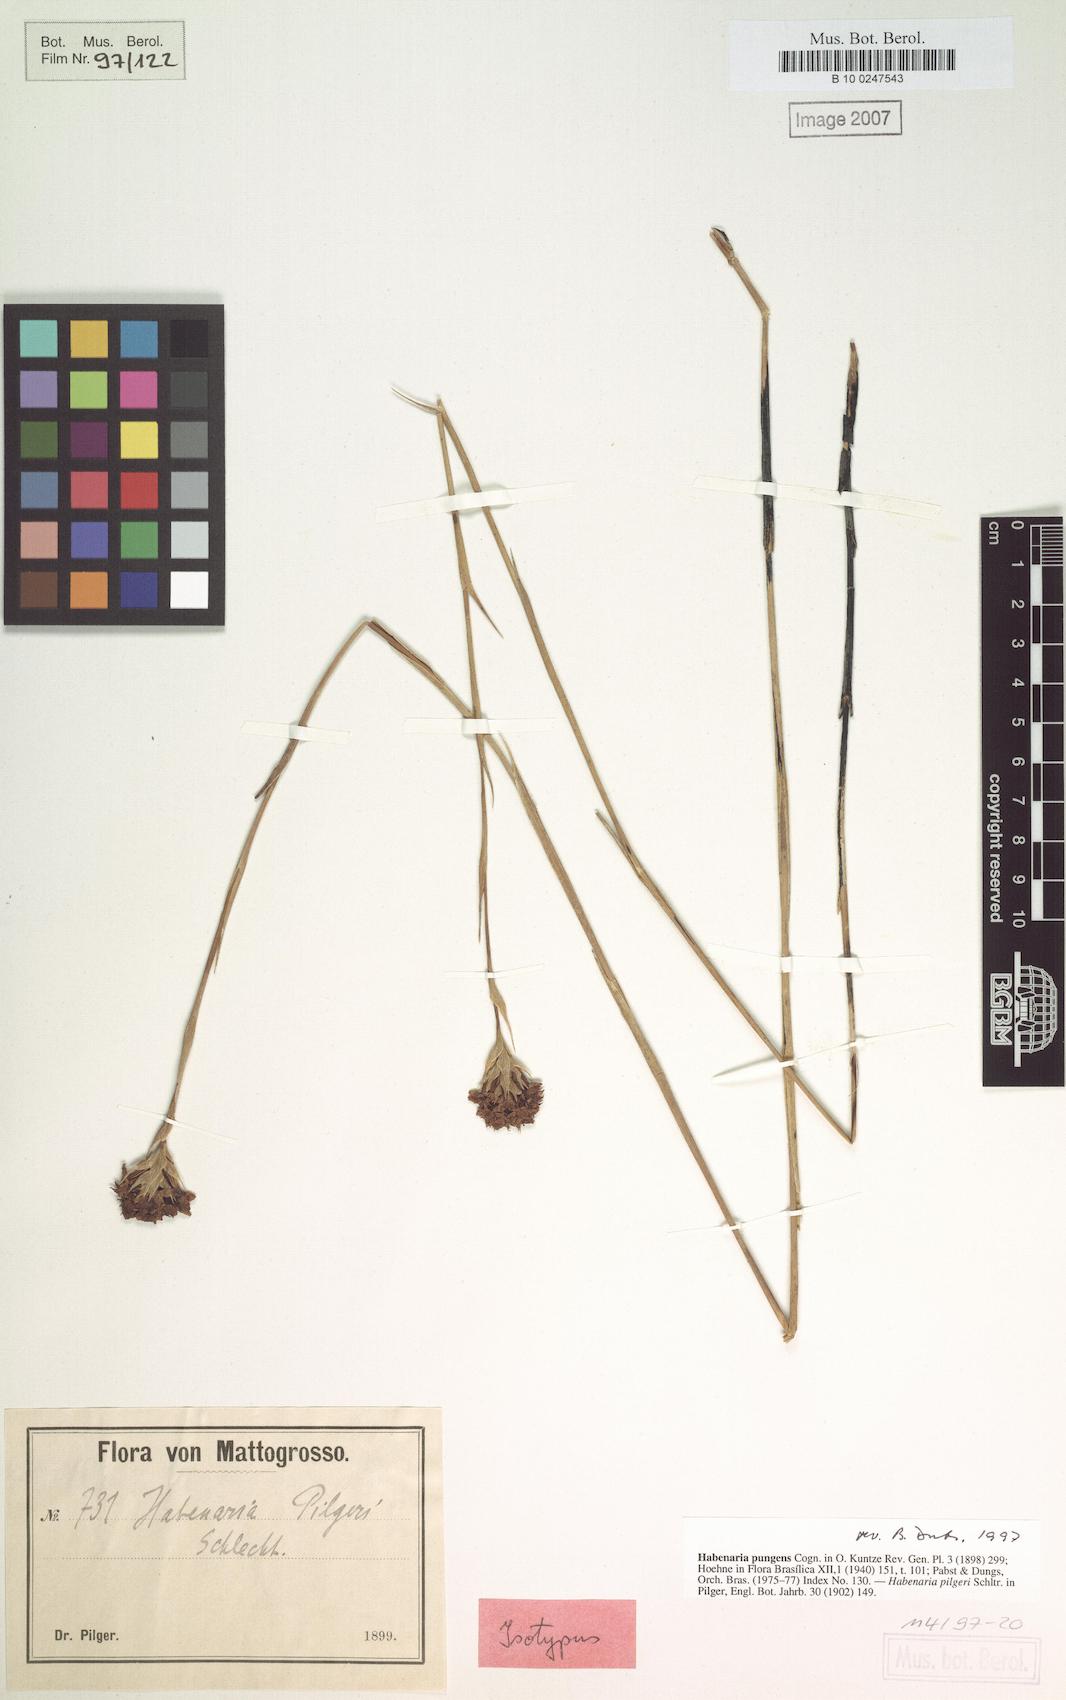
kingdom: Plantae
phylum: Tracheophyta
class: Liliopsida
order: Asparagales
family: Orchidaceae
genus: Habenaria
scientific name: Habenaria pungens
